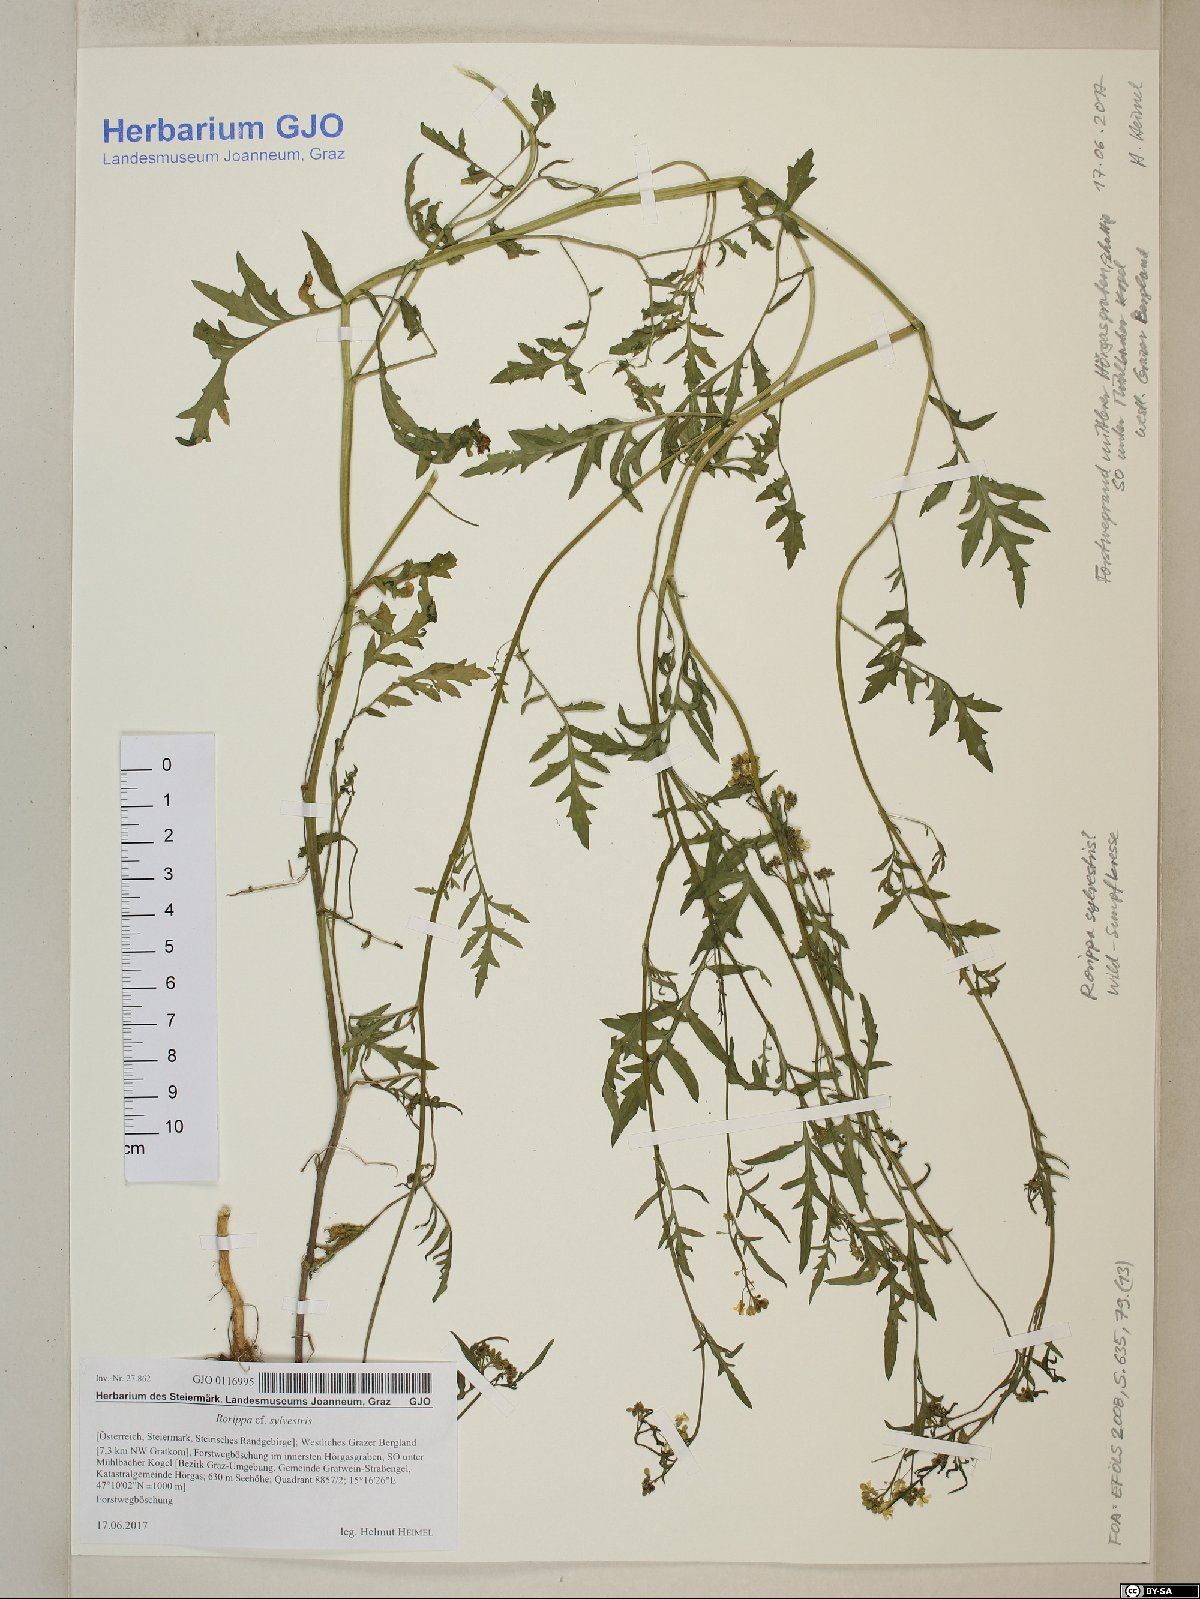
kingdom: Plantae
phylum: Tracheophyta
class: Magnoliopsida
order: Brassicales
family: Brassicaceae
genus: Rorippa
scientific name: Rorippa sylvestris
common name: Creeping yellowcress
